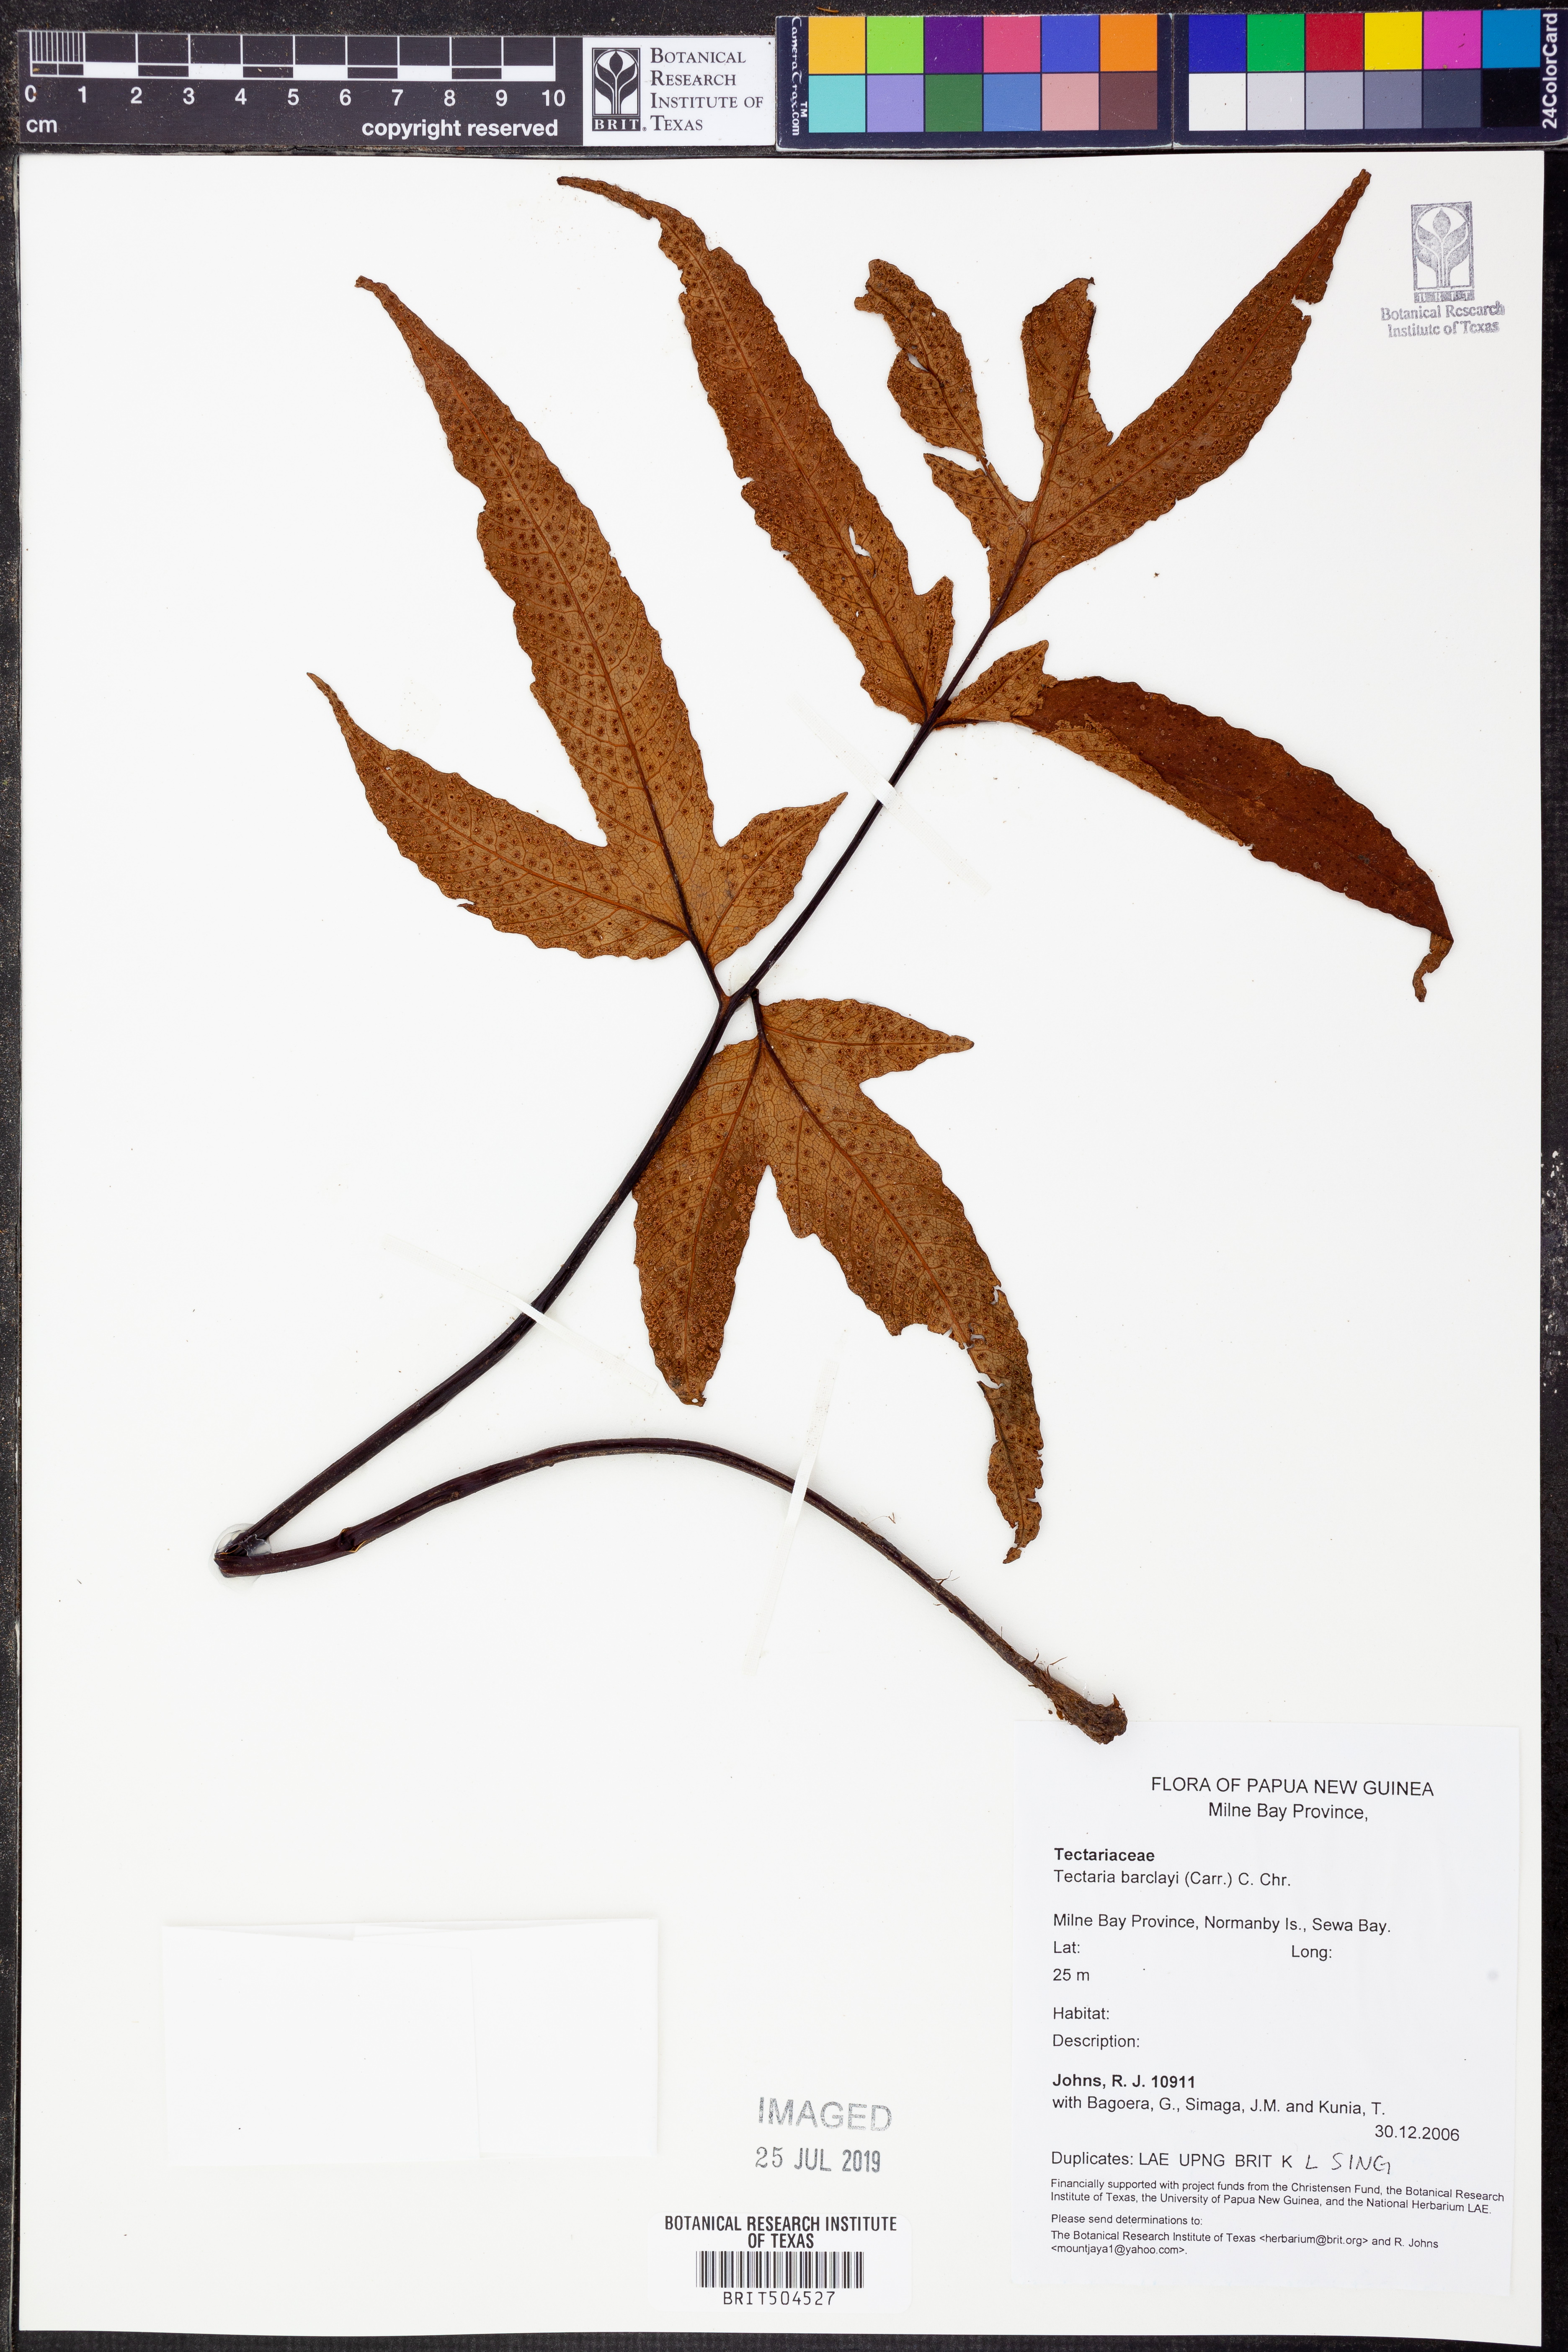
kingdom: Plantae
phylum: Tracheophyta
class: Polypodiopsida
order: Polypodiales
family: Tectariaceae
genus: Tectaria
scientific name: Tectaria durvillei
